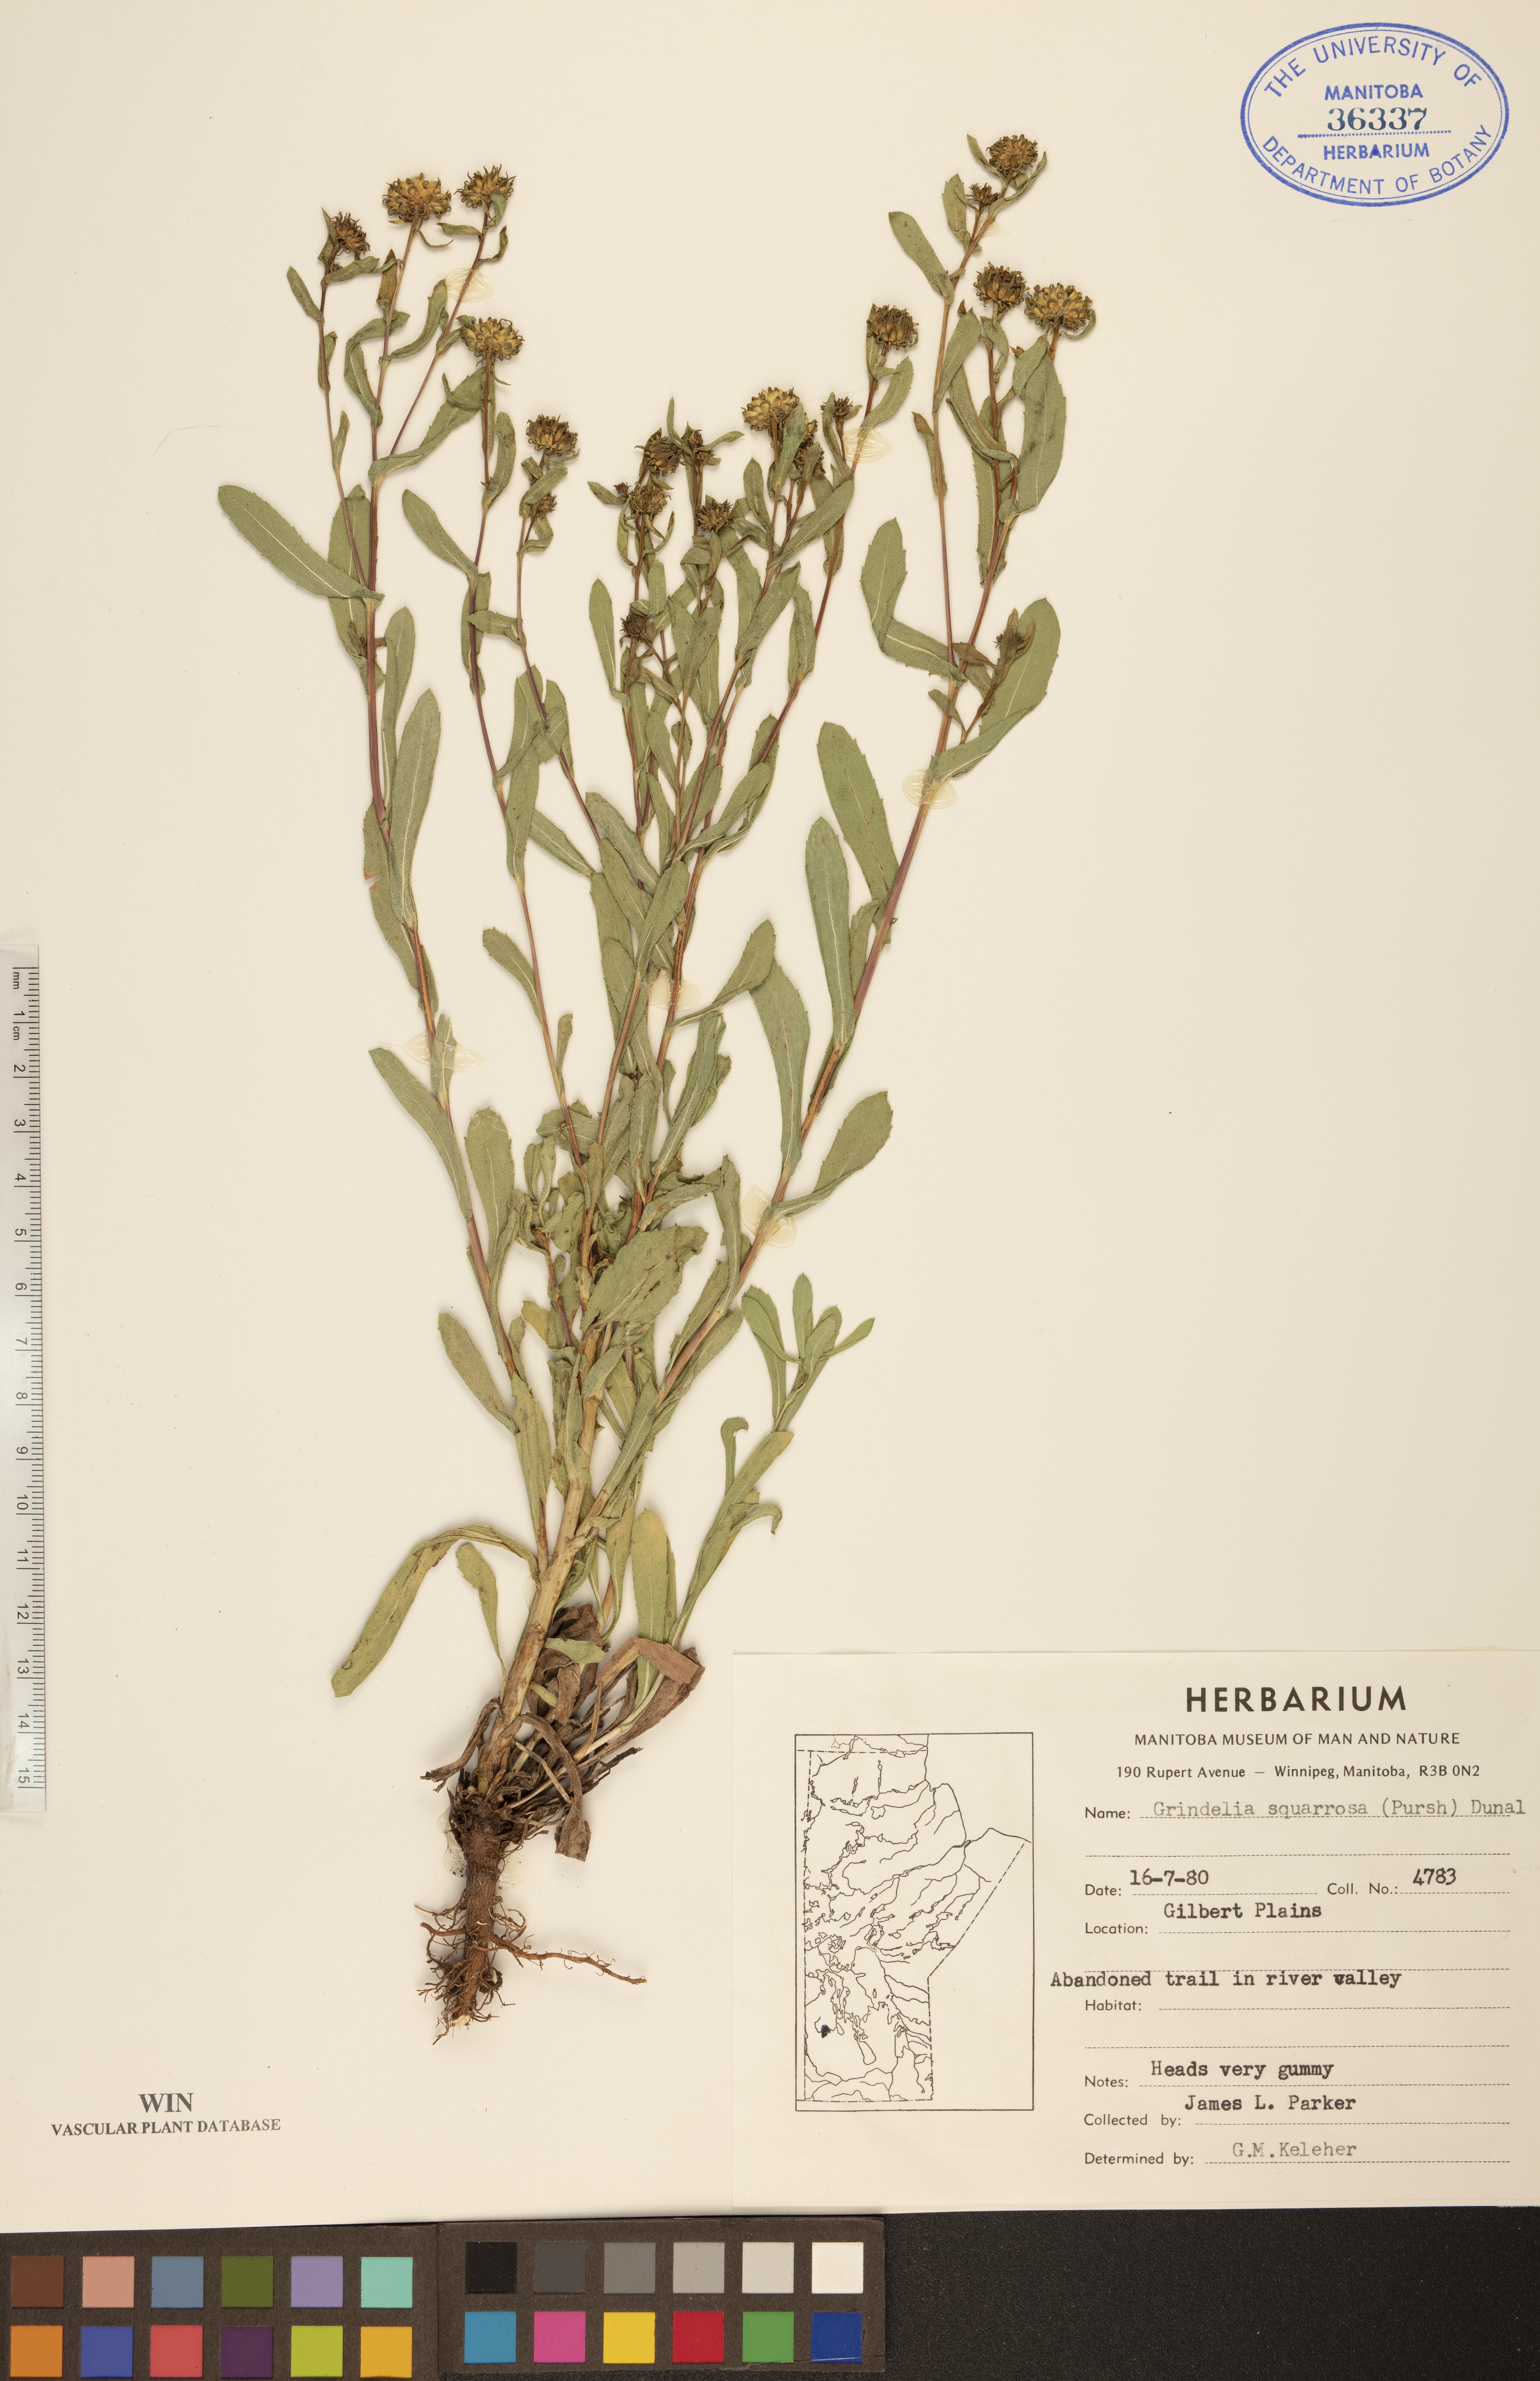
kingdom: Plantae
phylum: Tracheophyta
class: Magnoliopsida
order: Asterales
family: Asteraceae
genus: Grindelia
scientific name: Grindelia squarrosa
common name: Curly-cup gumweed
